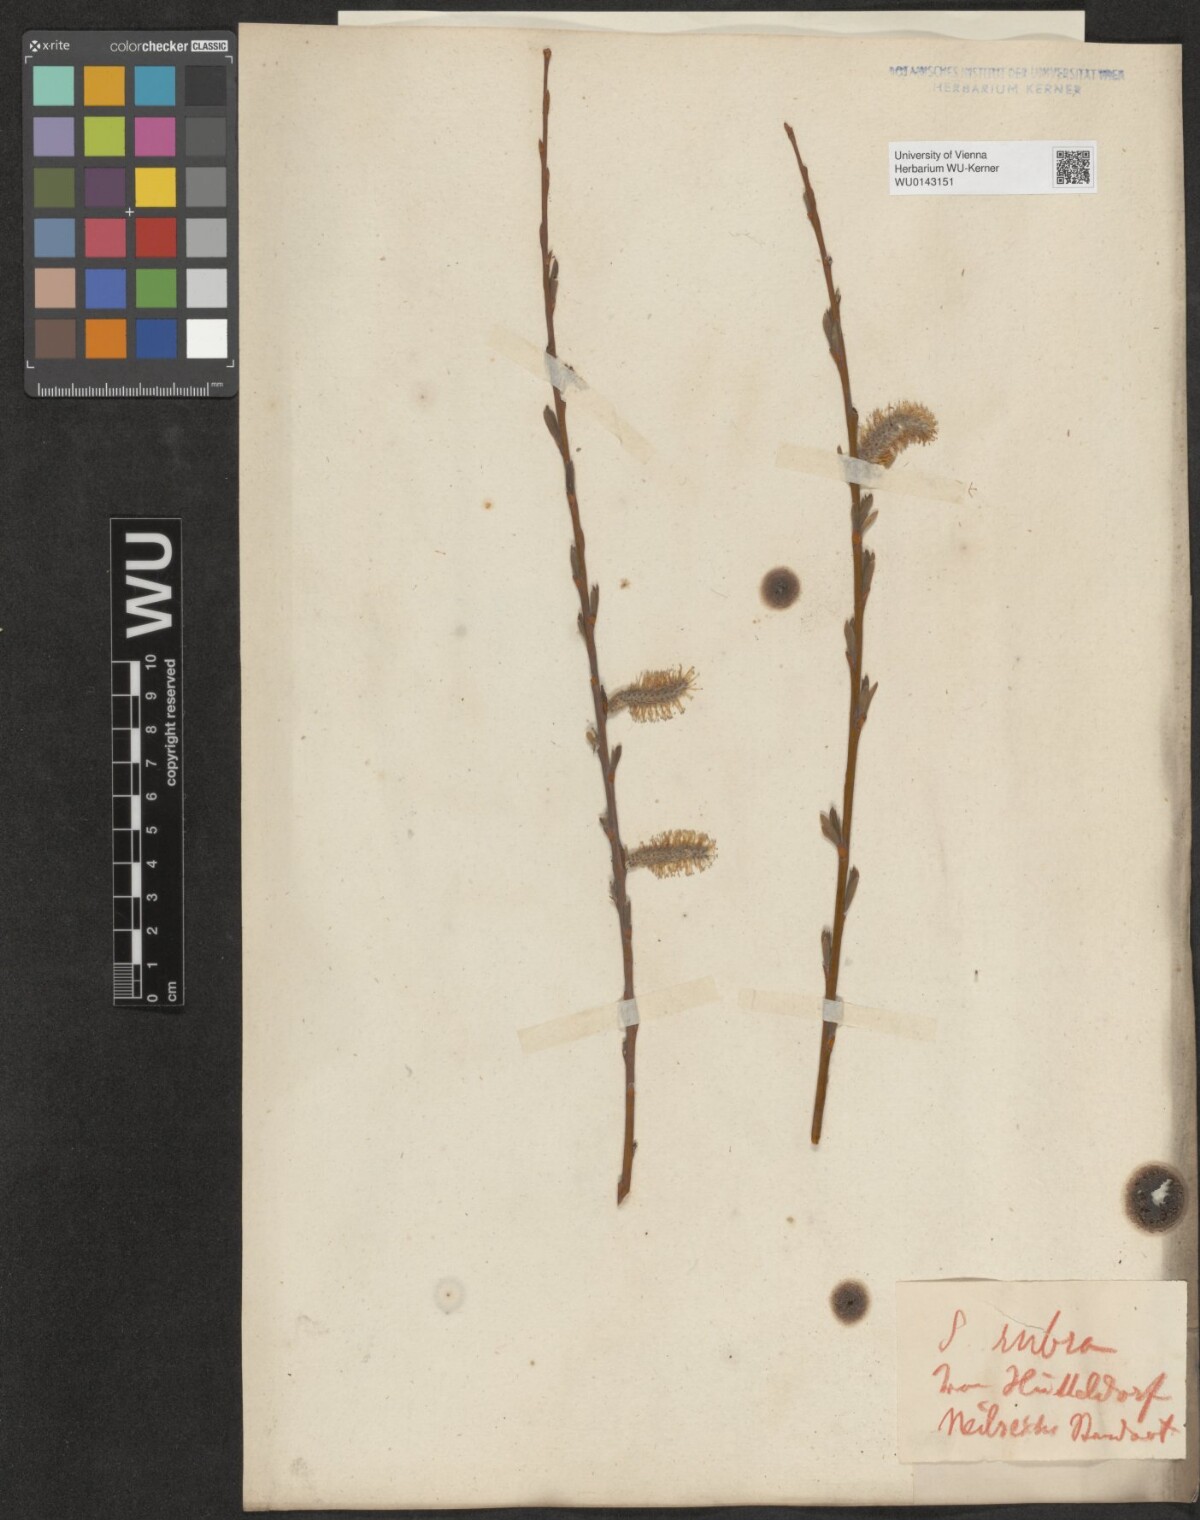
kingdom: Plantae
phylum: Tracheophyta
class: Magnoliopsida
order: Malpighiales
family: Salicaceae
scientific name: Salicaceae
